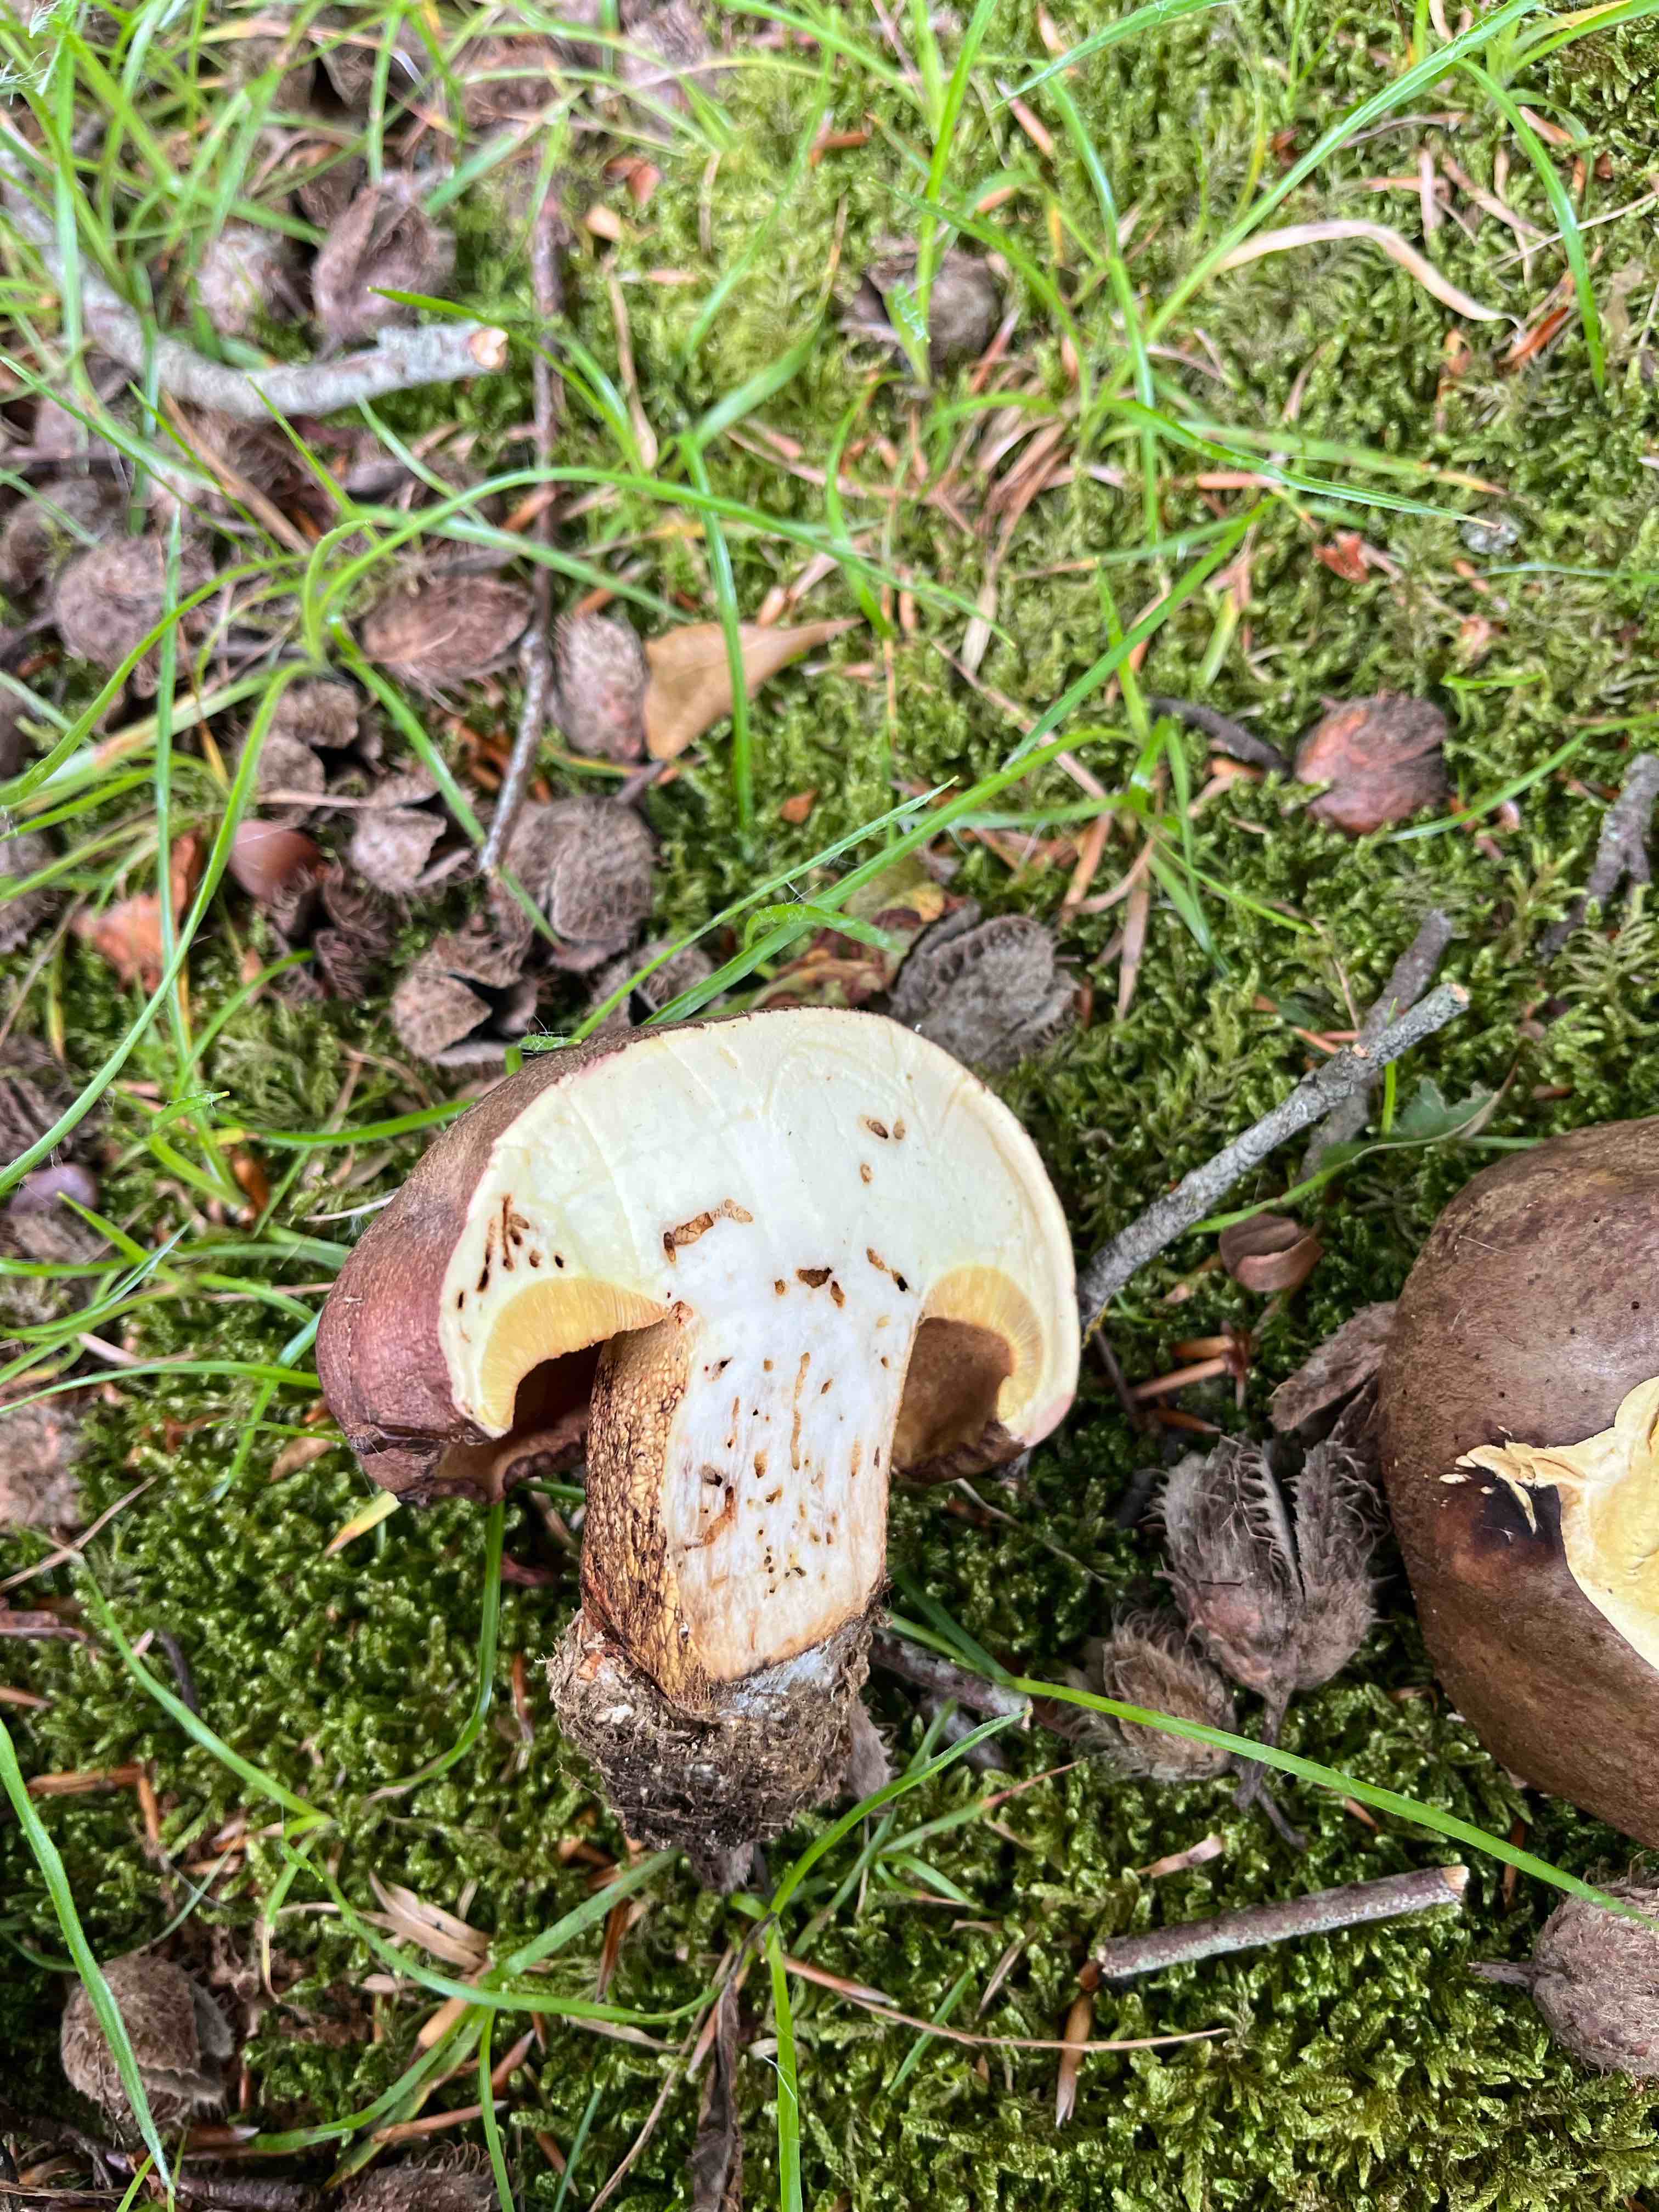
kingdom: Fungi
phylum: Basidiomycota
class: Agaricomycetes
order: Boletales
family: Boletaceae
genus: Butyriboletus
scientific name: Butyriboletus appendiculatus
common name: tenstokket rørhat
